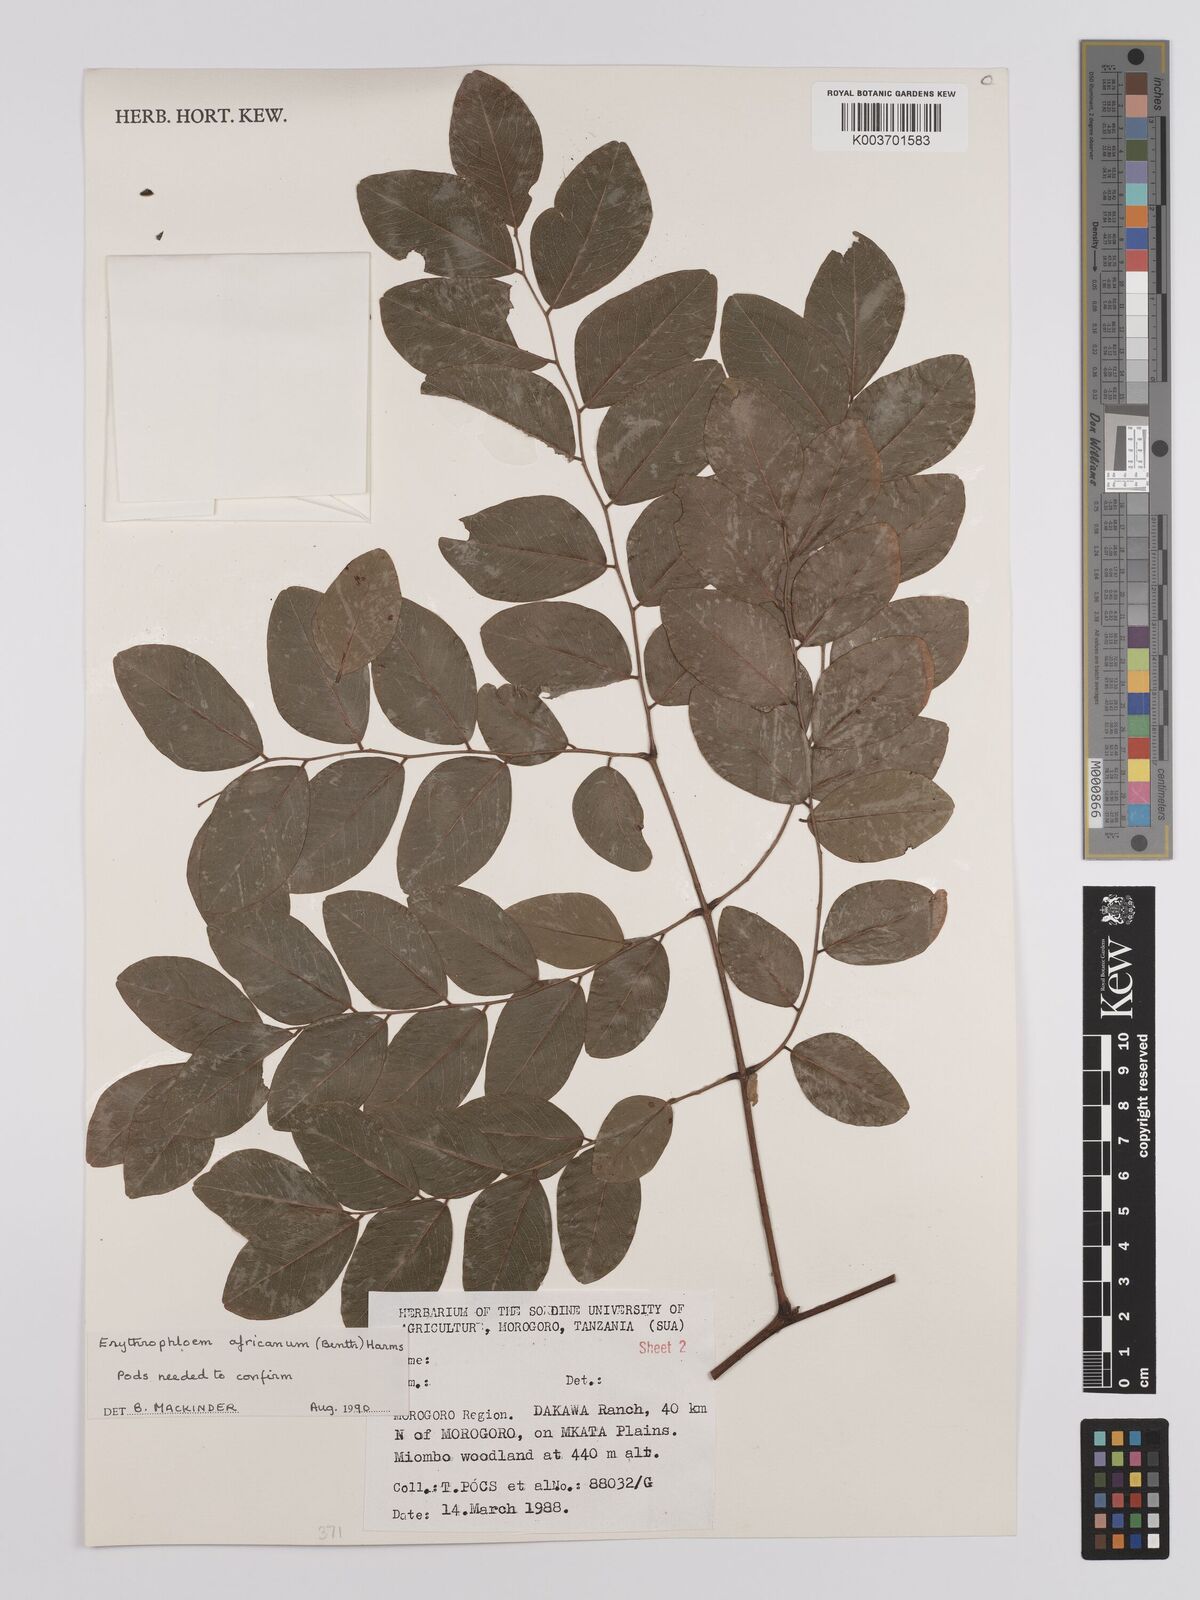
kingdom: Plantae
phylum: Tracheophyta
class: Magnoliopsida
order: Fabales
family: Fabaceae
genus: Erythrophleum
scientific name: Erythrophleum africanum
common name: African blackwood
